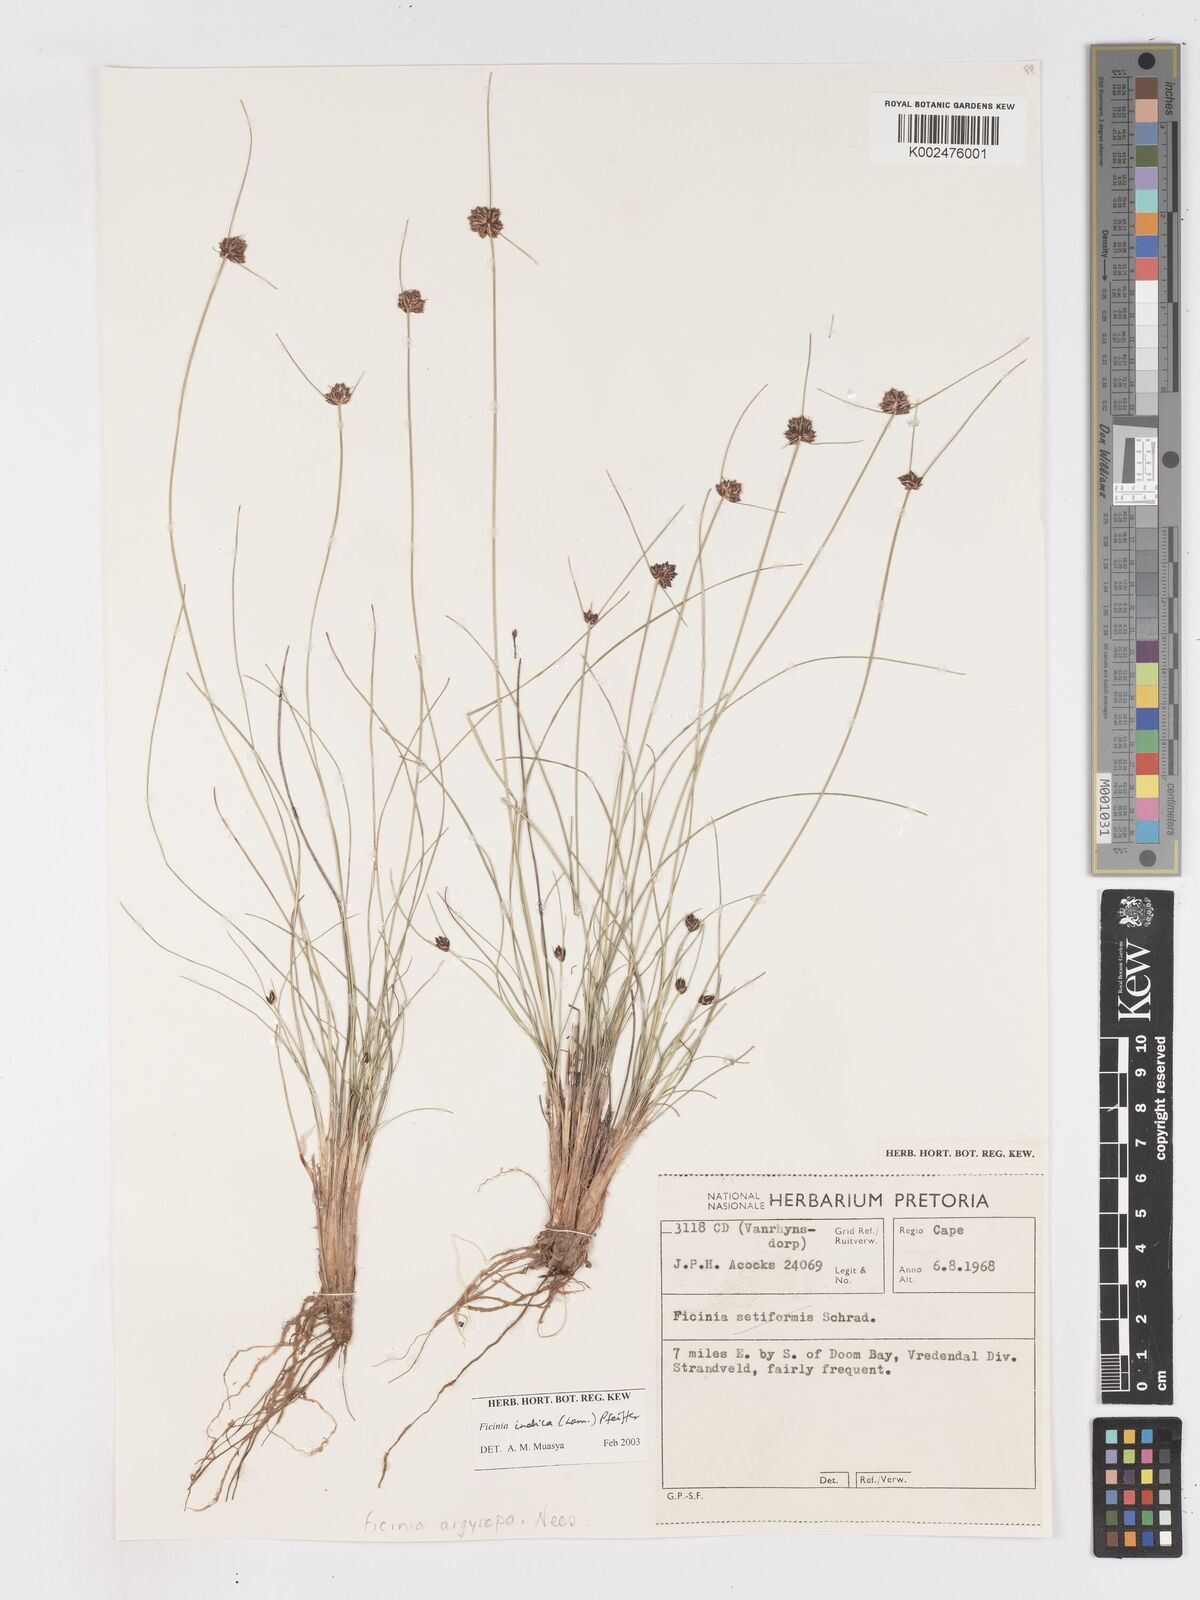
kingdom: Plantae
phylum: Tracheophyta
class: Liliopsida
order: Poales
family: Cyperaceae
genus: Ficinia
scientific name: Ficinia indica
